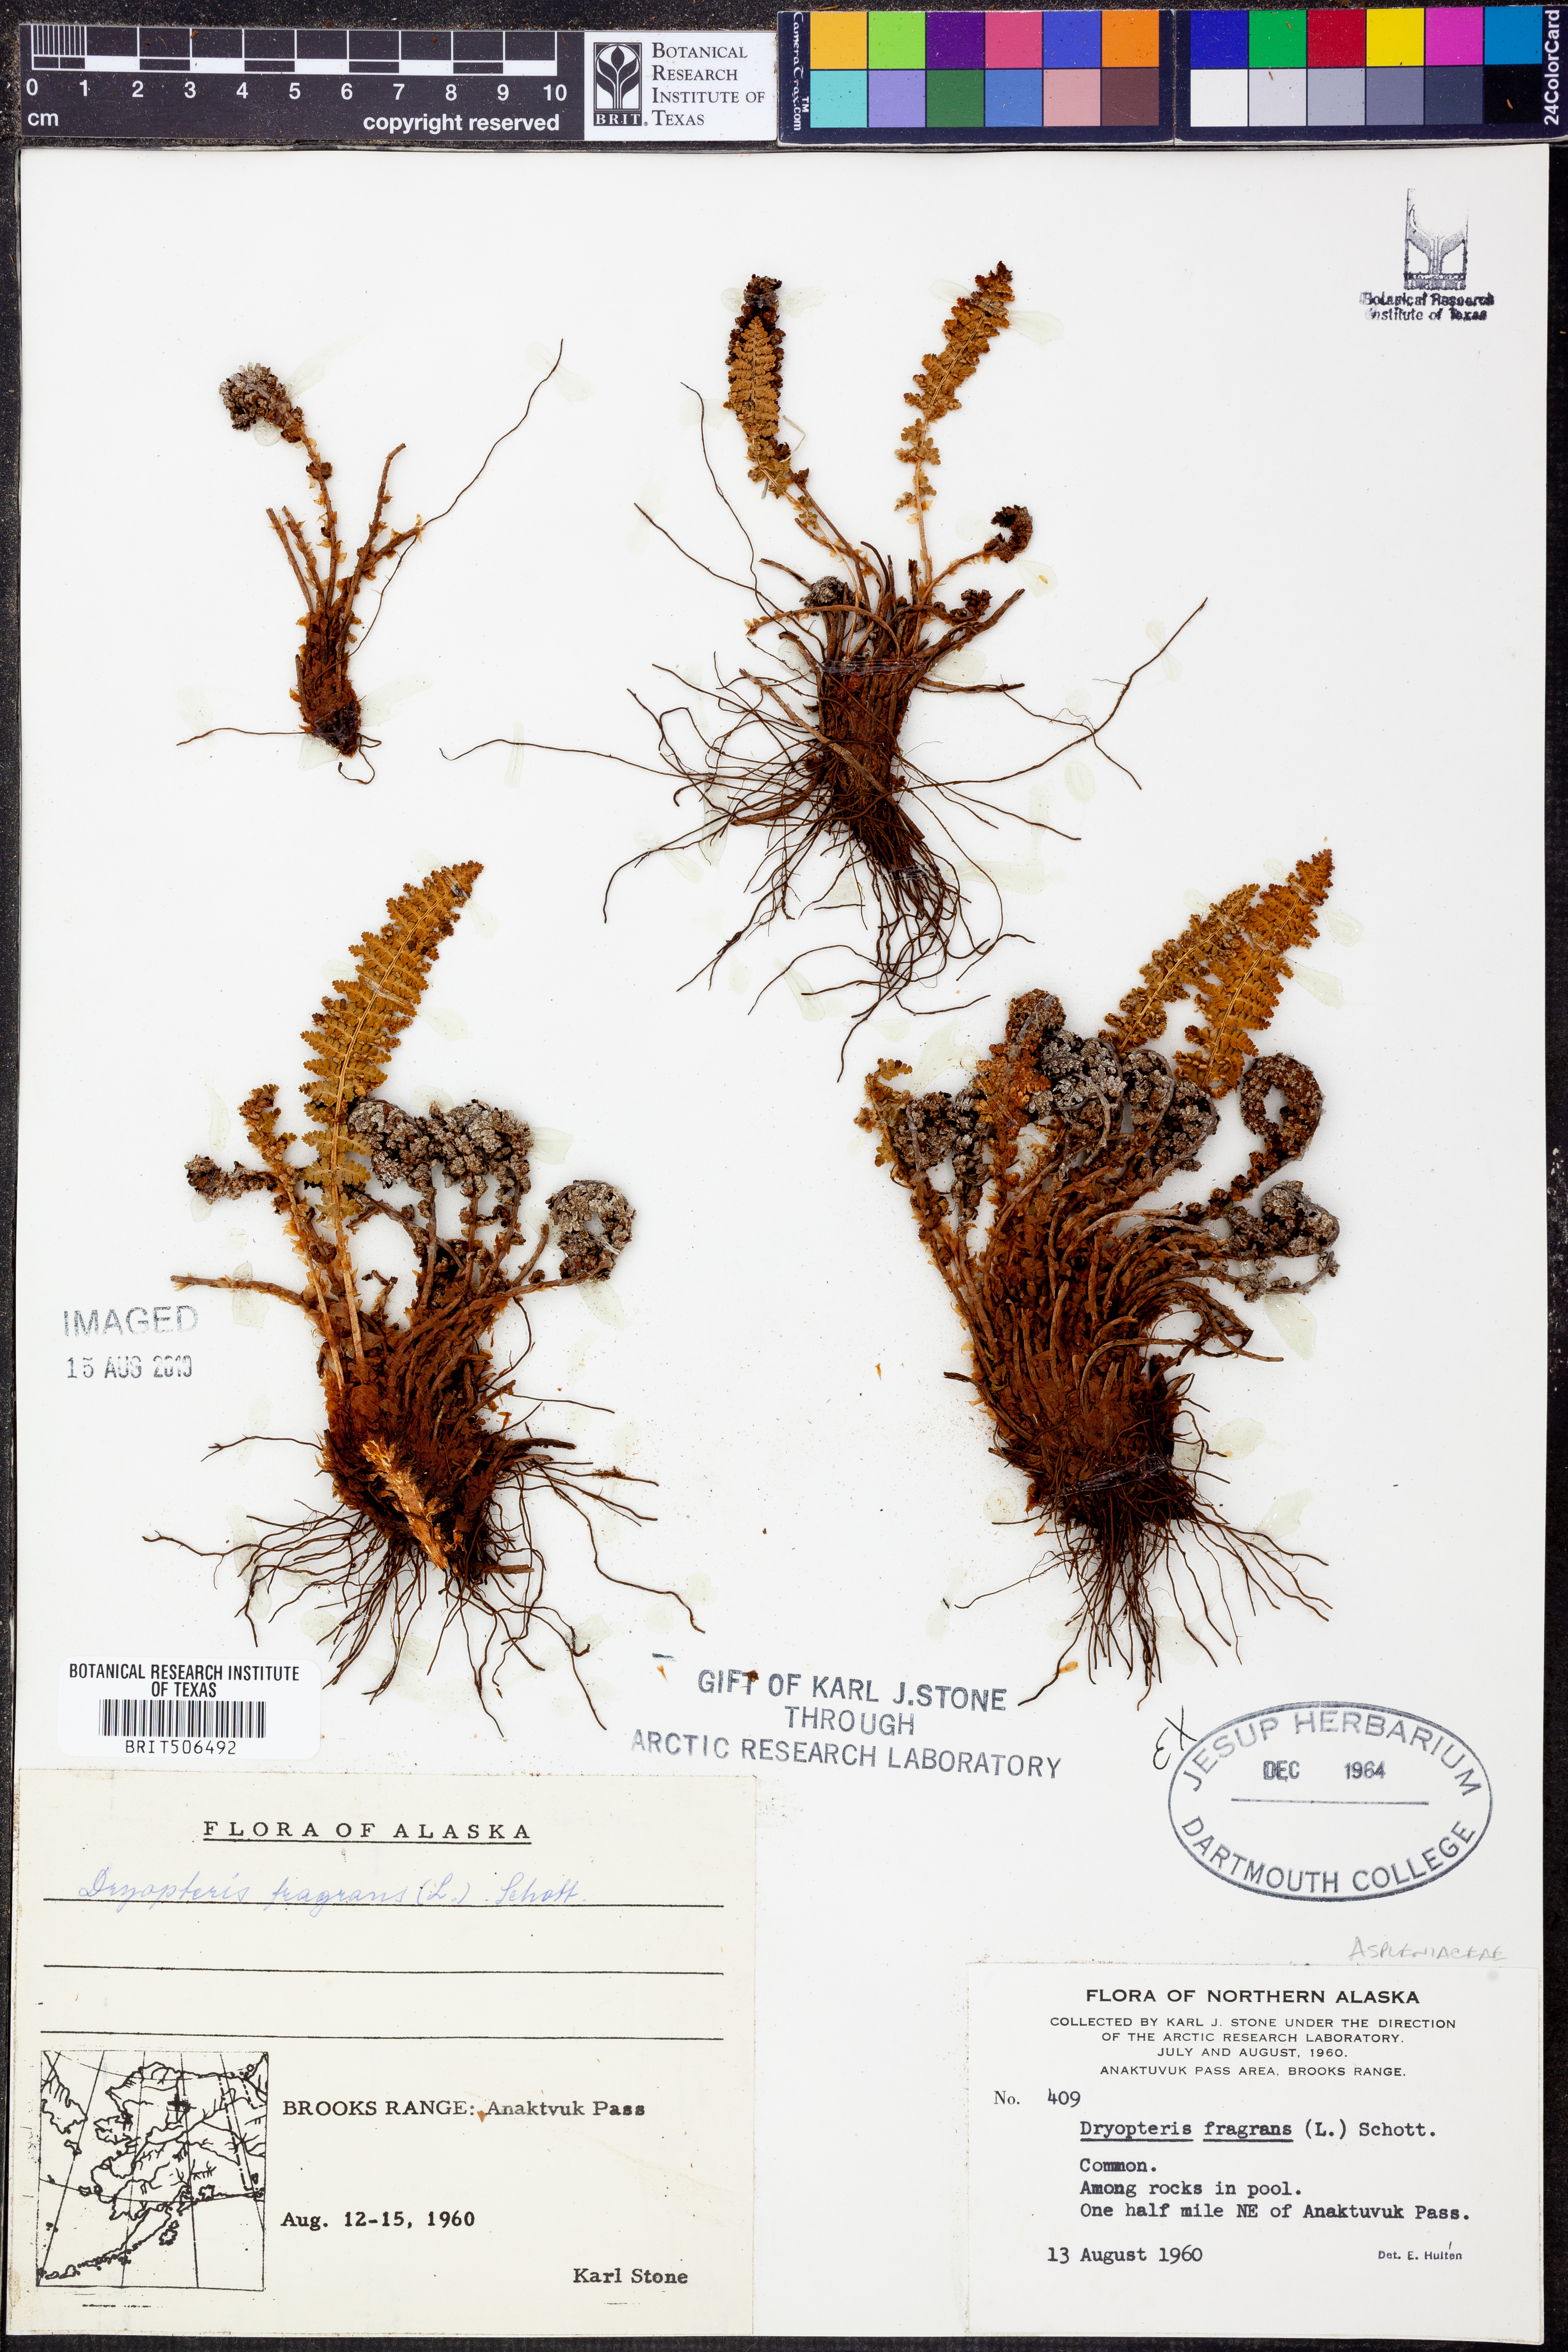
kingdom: Plantae
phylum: Tracheophyta
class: Polypodiopsida
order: Polypodiales
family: Dryopteridaceae
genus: Dryopteris
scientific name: Dryopteris fragrans
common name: Fragrant wood fern
